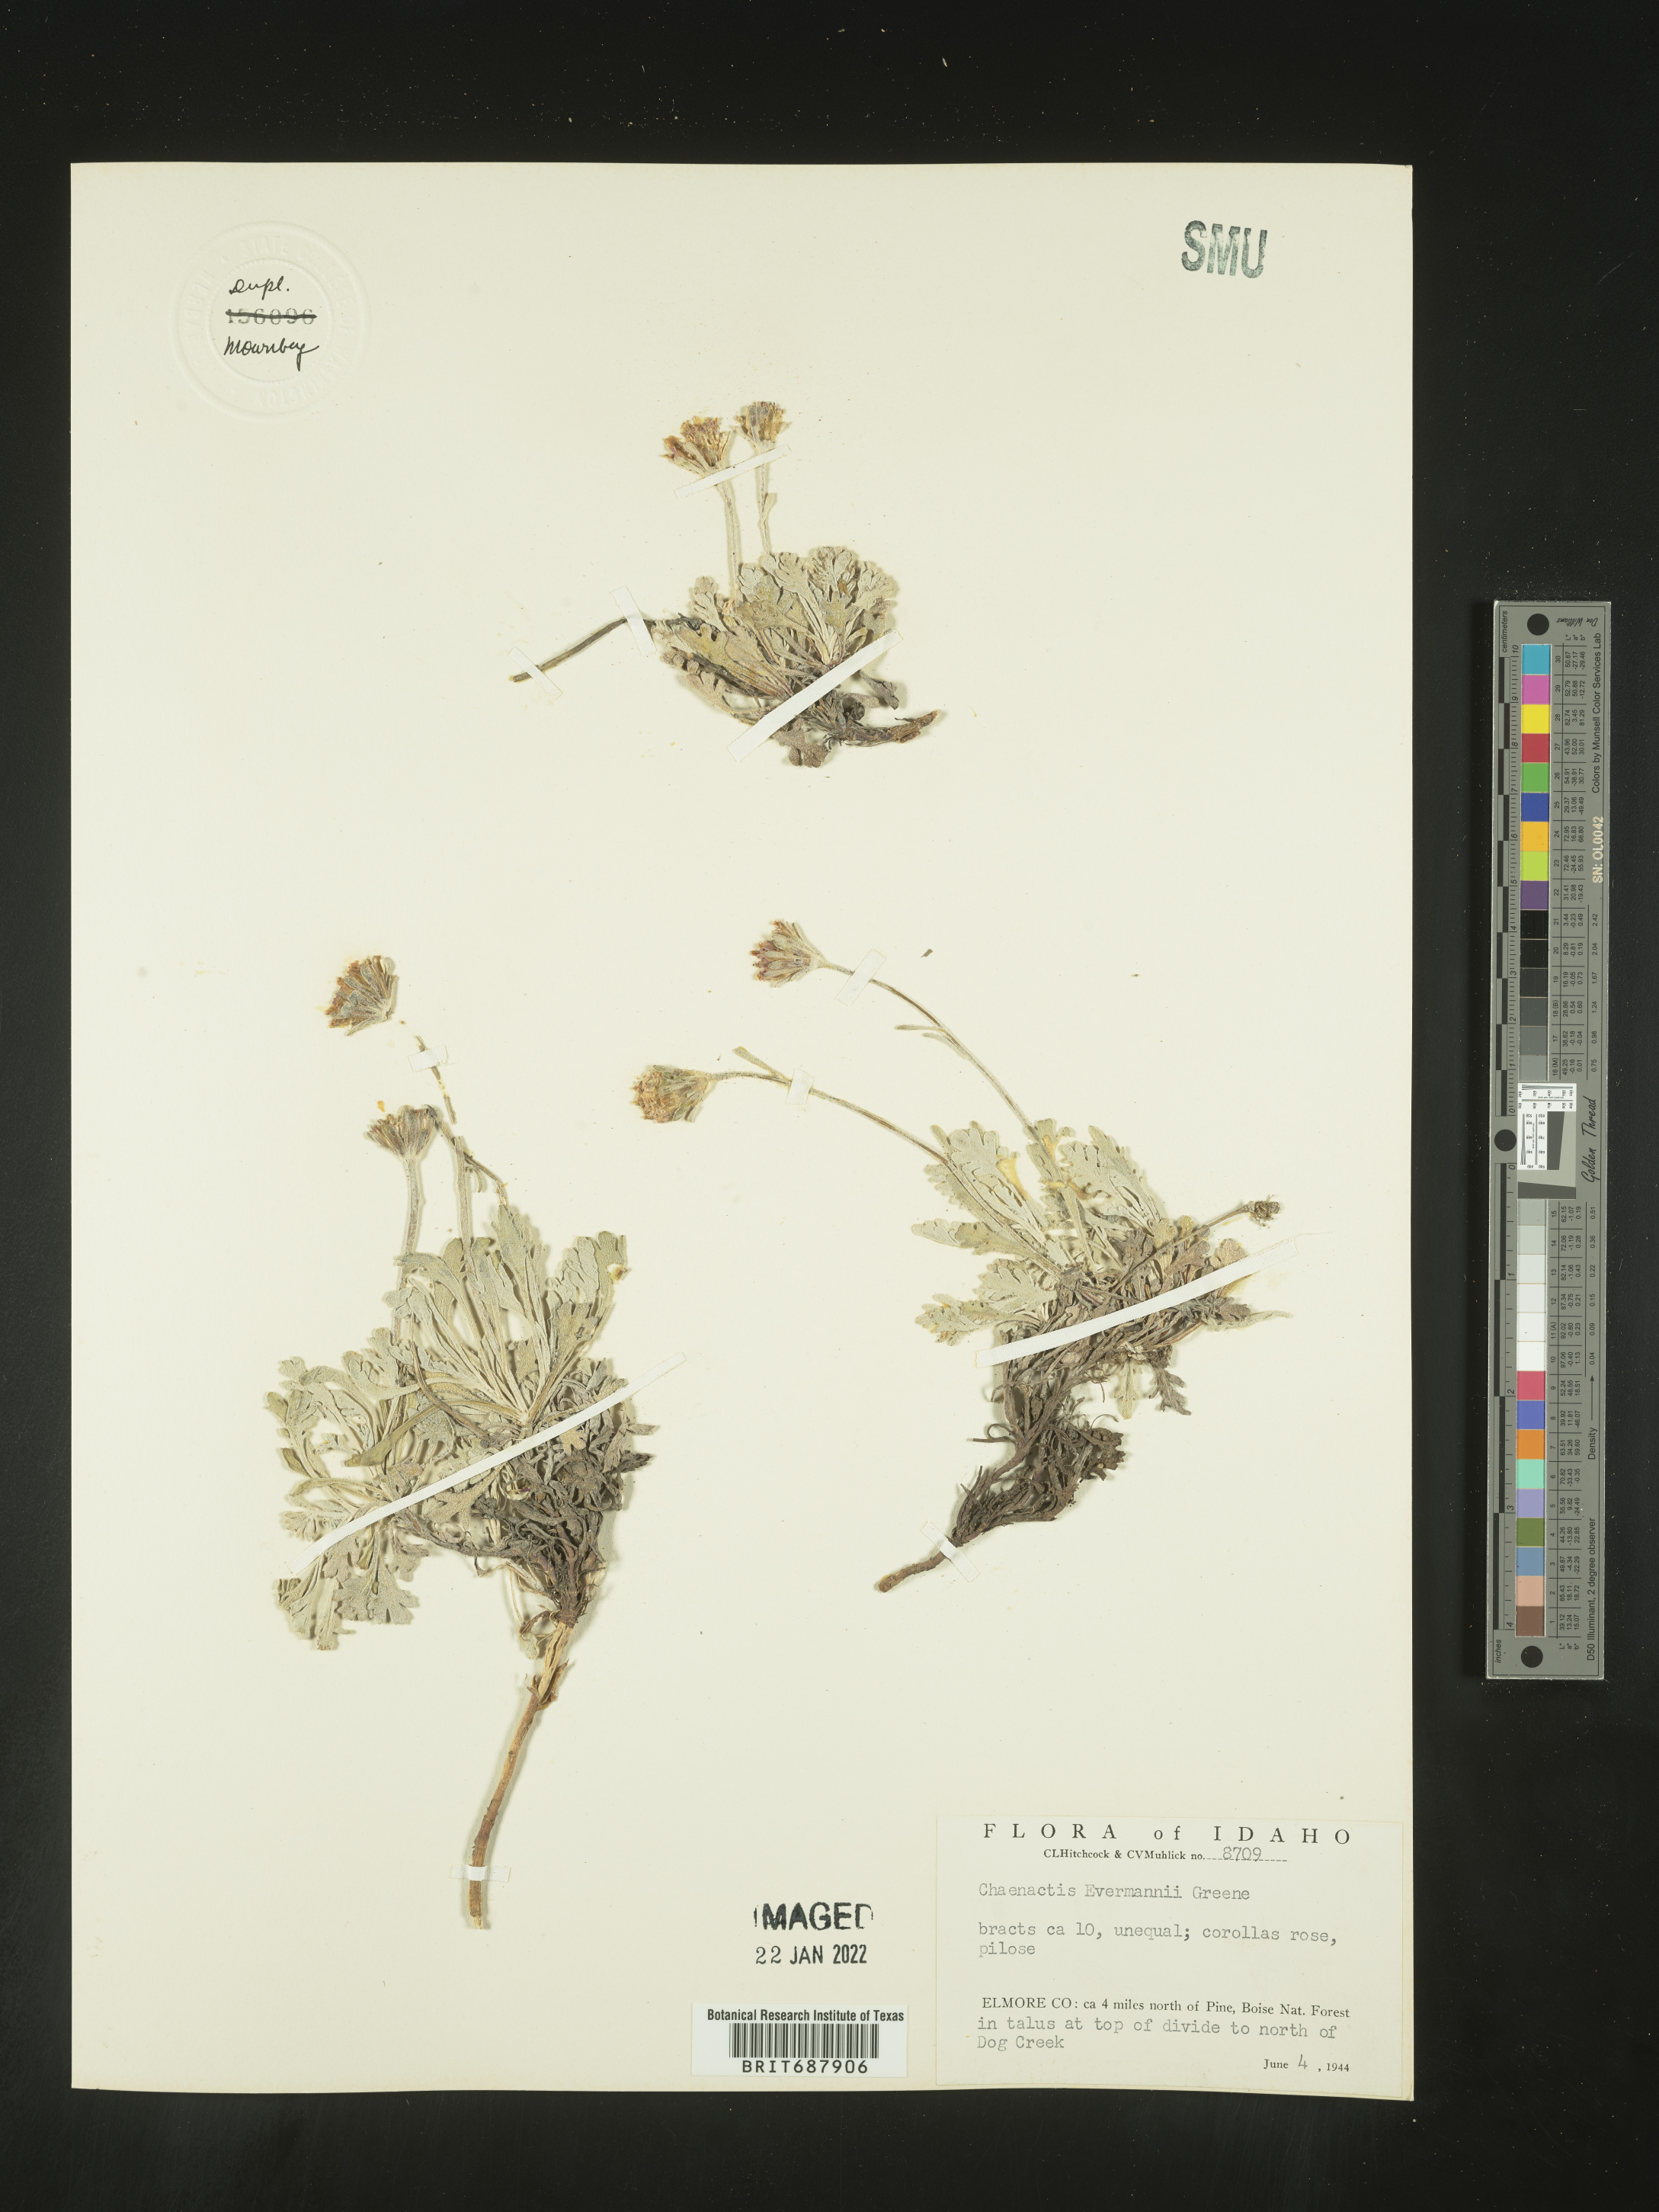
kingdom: Plantae
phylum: Tracheophyta
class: Magnoliopsida
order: Asterales
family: Asteraceae
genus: Chaenactis
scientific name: Chaenactis evermannii
